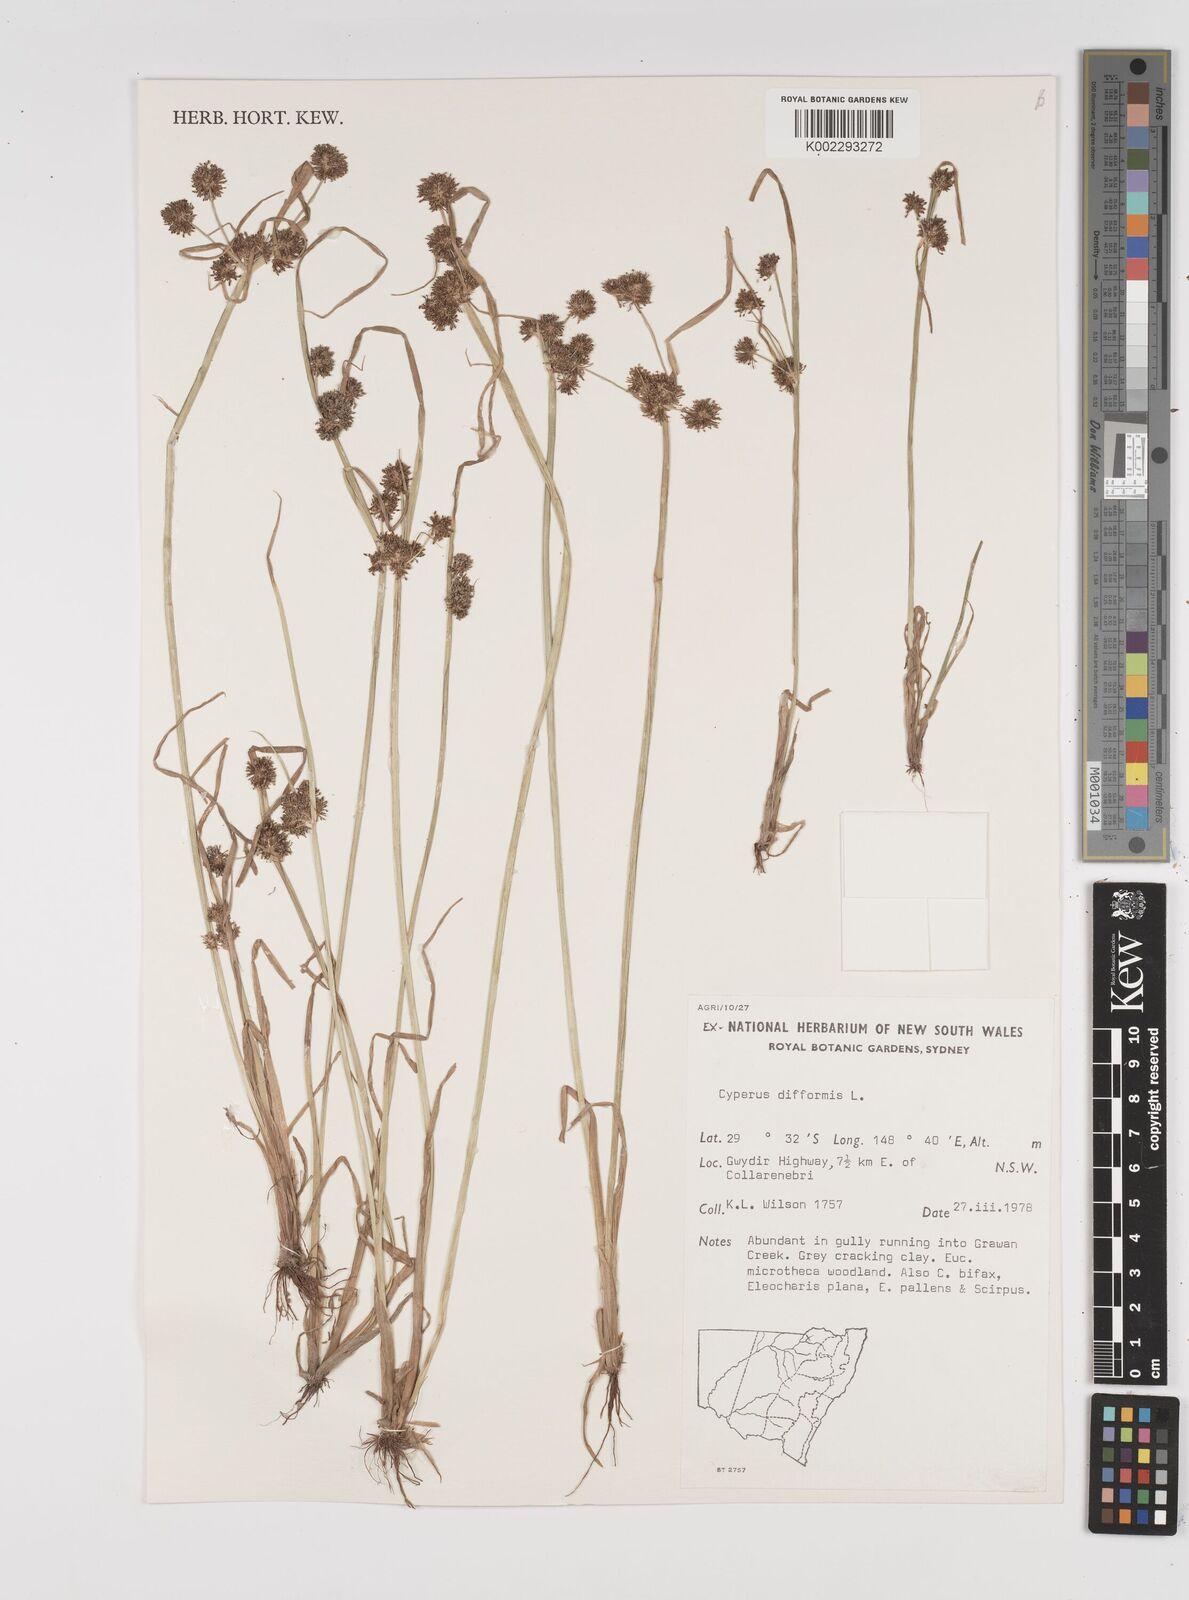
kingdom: Plantae
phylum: Tracheophyta
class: Liliopsida
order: Poales
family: Cyperaceae
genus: Cyperus
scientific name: Cyperus difformis
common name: Variable flatsedge
